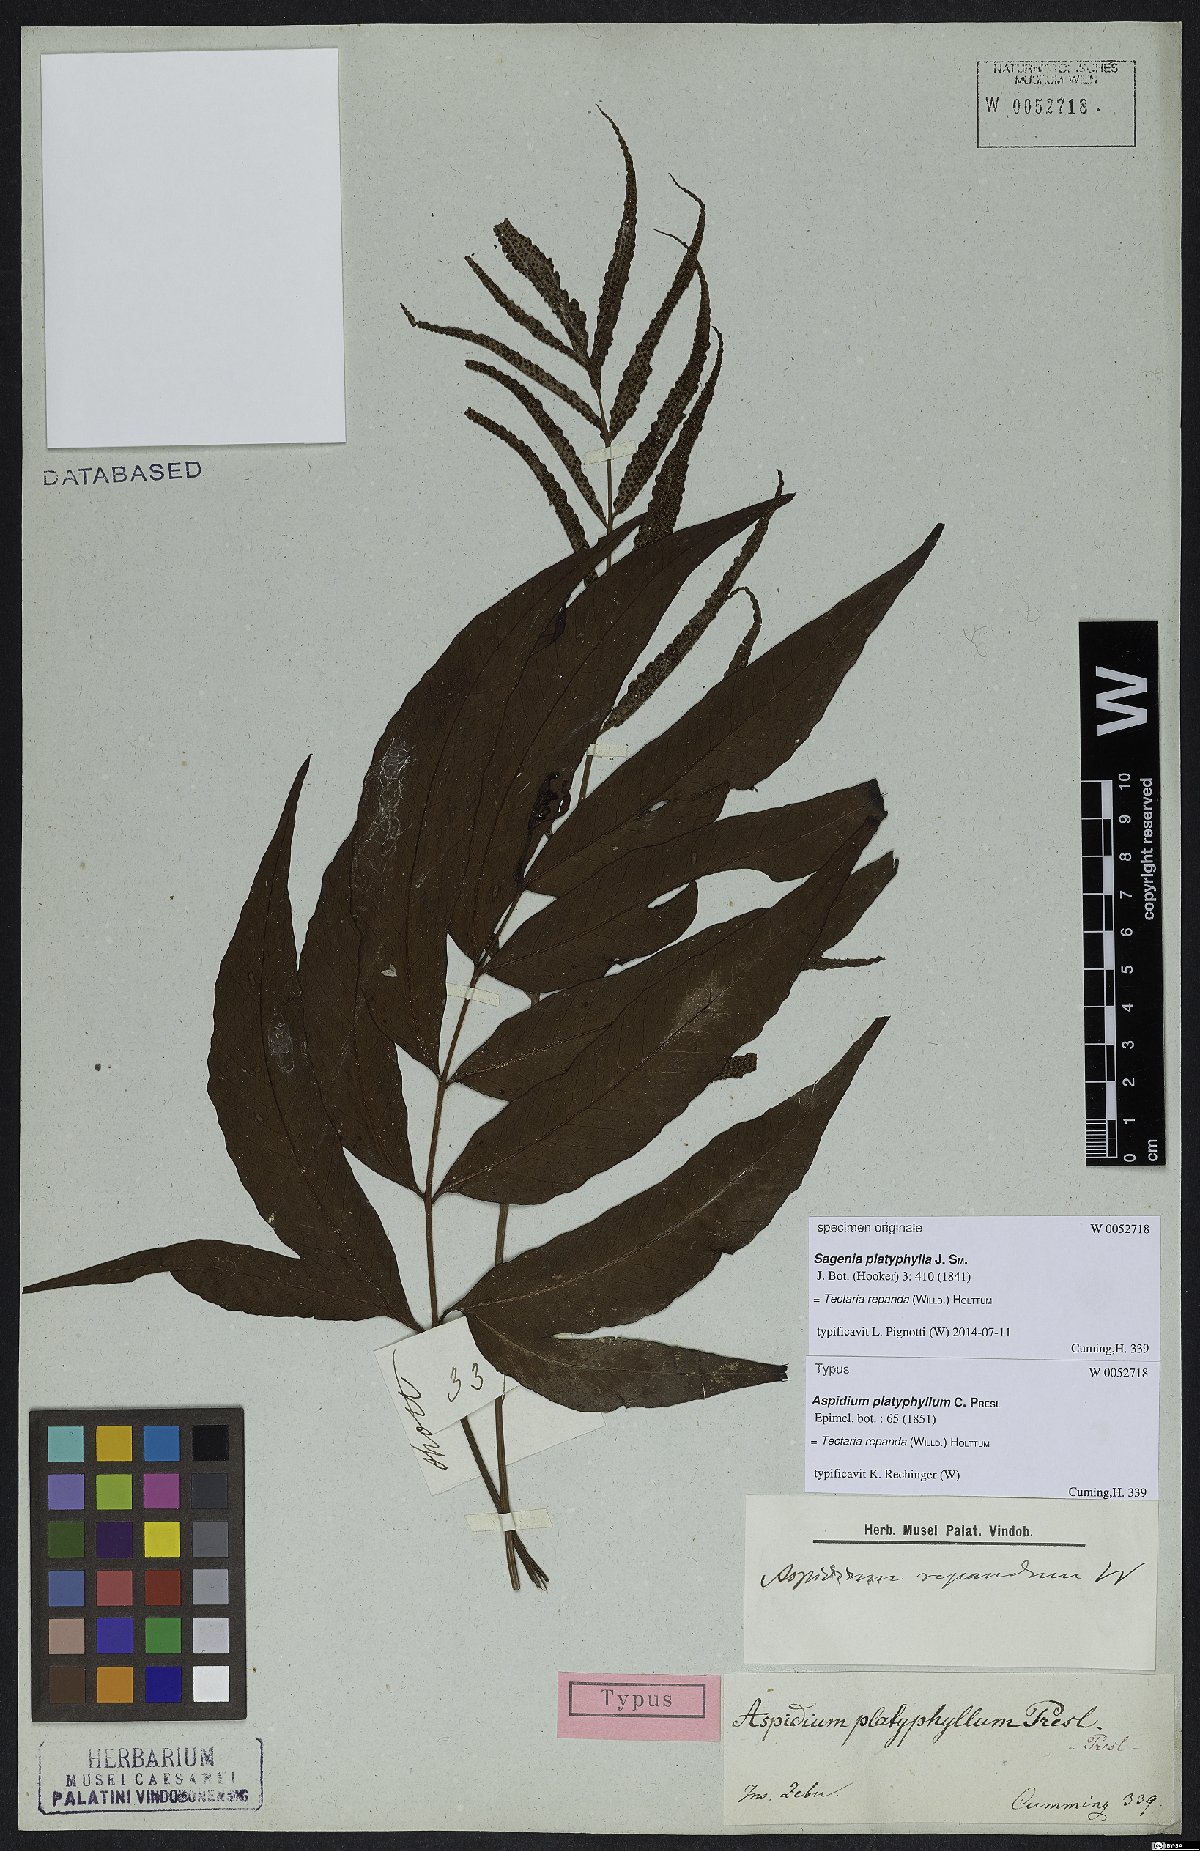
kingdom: Plantae
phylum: Tracheophyta
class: Polypodiopsida
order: Polypodiales
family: Tectariaceae
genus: Tectaria
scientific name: Tectaria repanda
